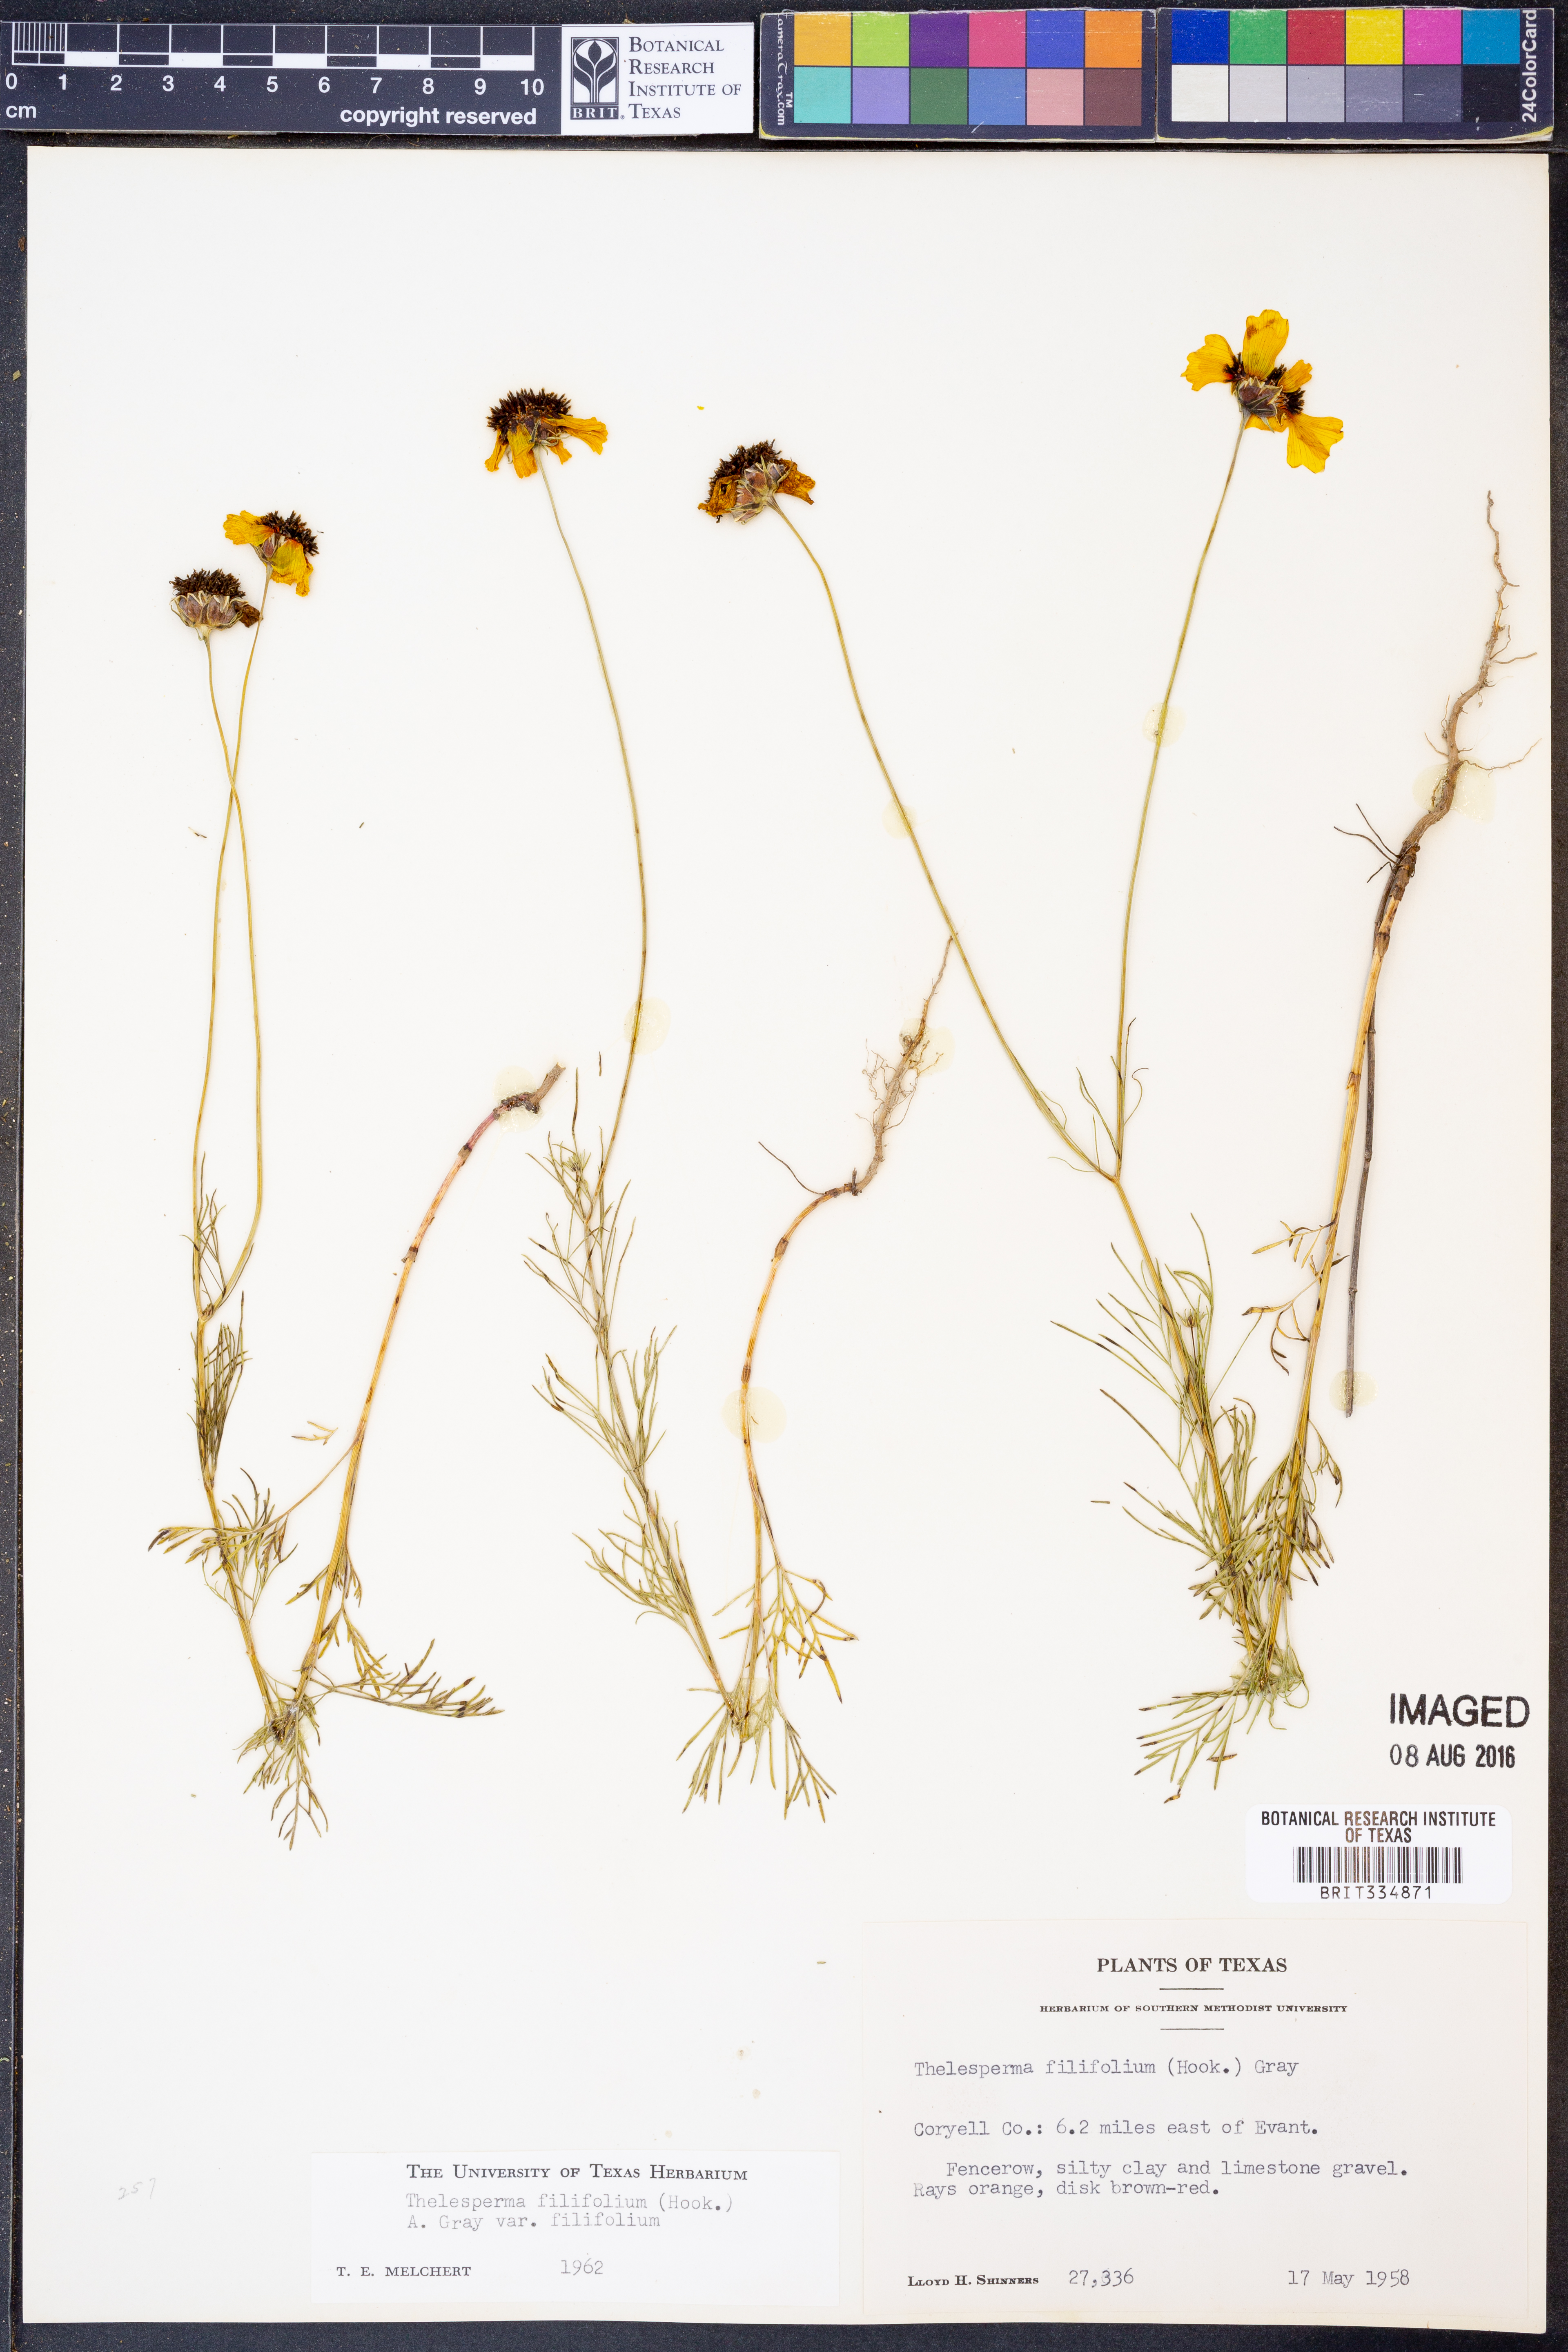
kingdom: Plantae
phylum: Tracheophyta
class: Magnoliopsida
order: Asterales
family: Asteraceae
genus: Thelesperma
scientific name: Thelesperma filifolium
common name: Stiff greenthread
